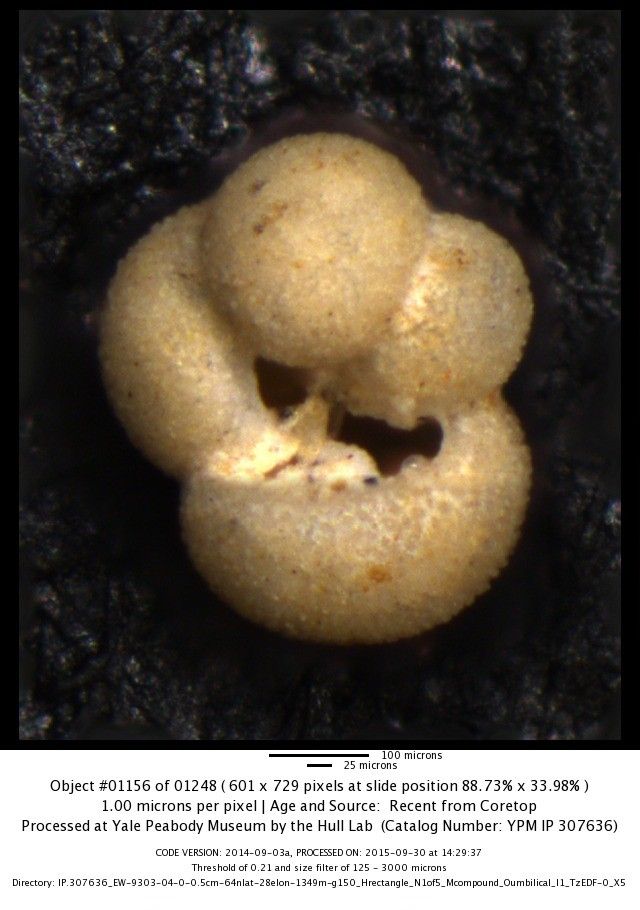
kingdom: Chromista
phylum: Foraminifera
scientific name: Foraminifera
